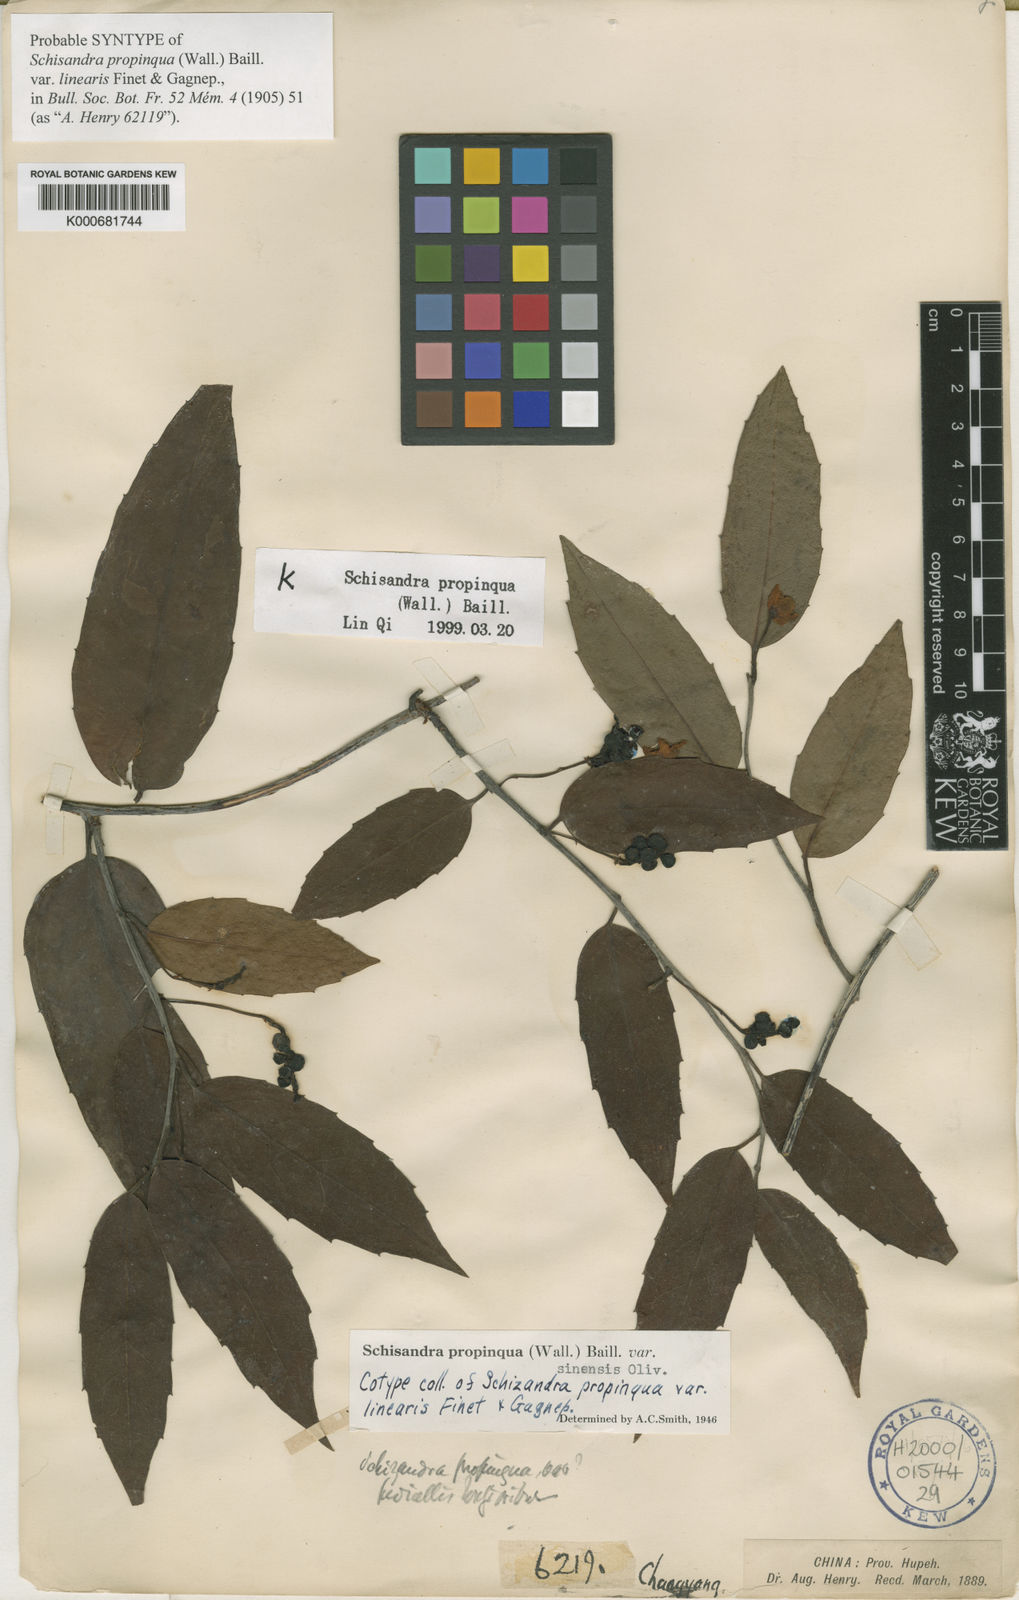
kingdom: Plantae
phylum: Tracheophyta
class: Magnoliopsida
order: Austrobaileyales
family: Schisandraceae
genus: Schisandra
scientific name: Schisandra propinqua
